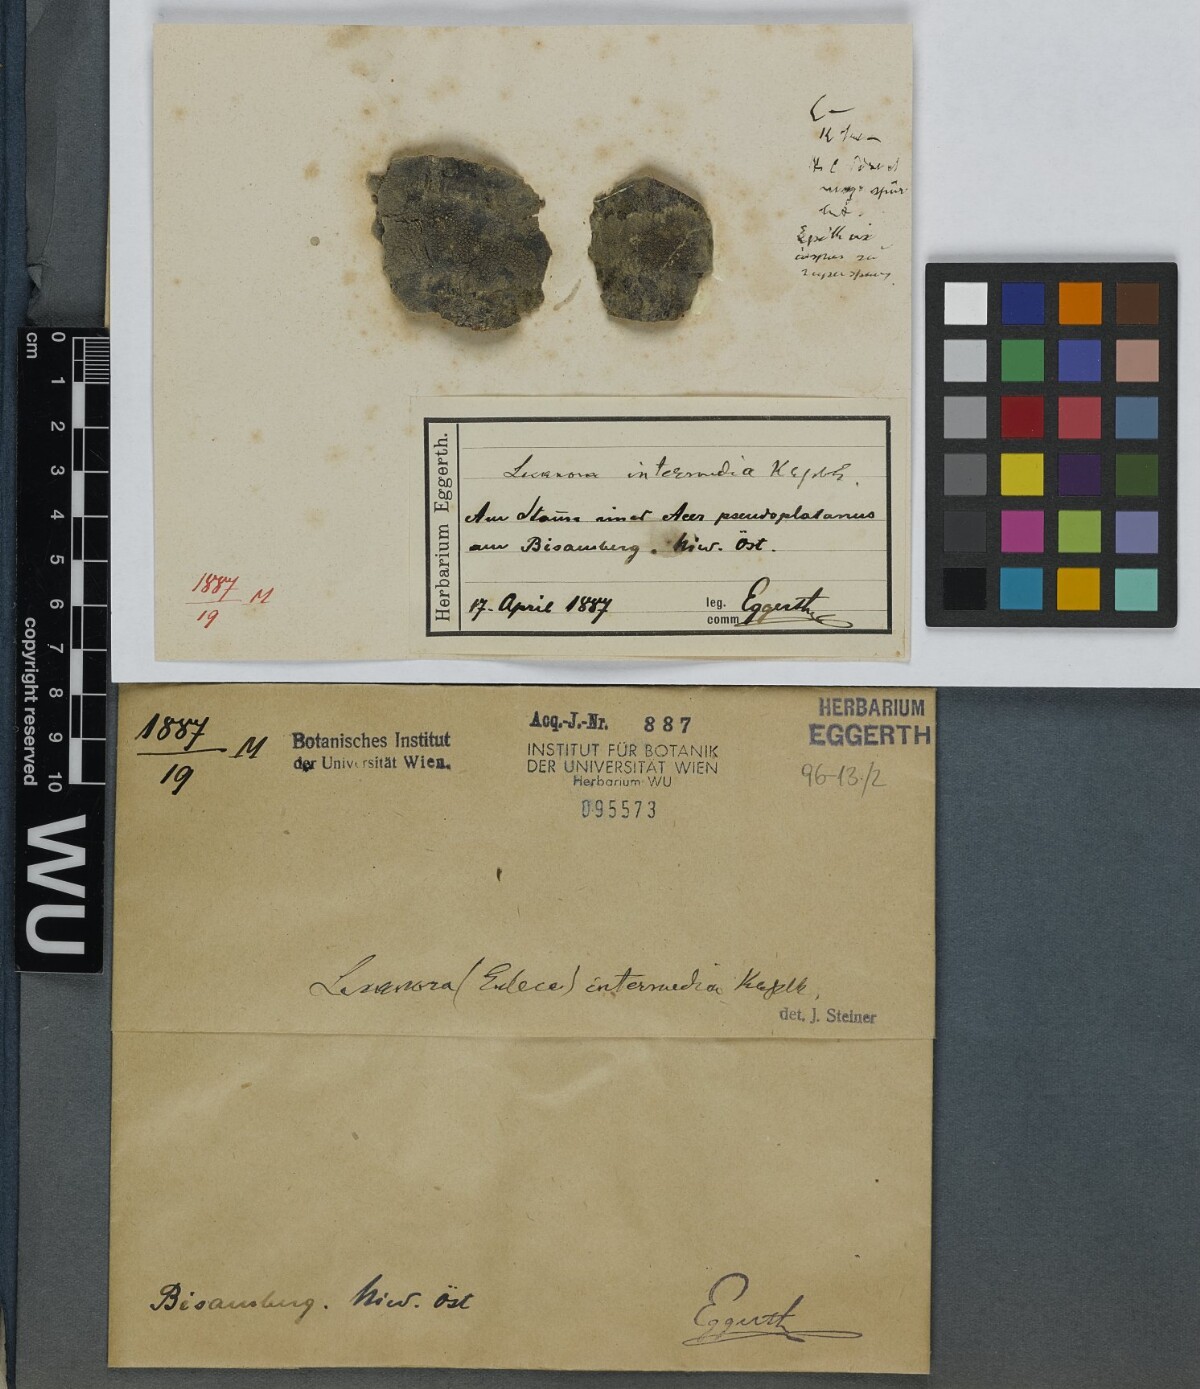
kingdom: Fungi
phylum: Ascomycota
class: Lecanoromycetes
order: Lecanorales
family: Lecanoraceae
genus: Lecanora
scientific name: Lecanora
